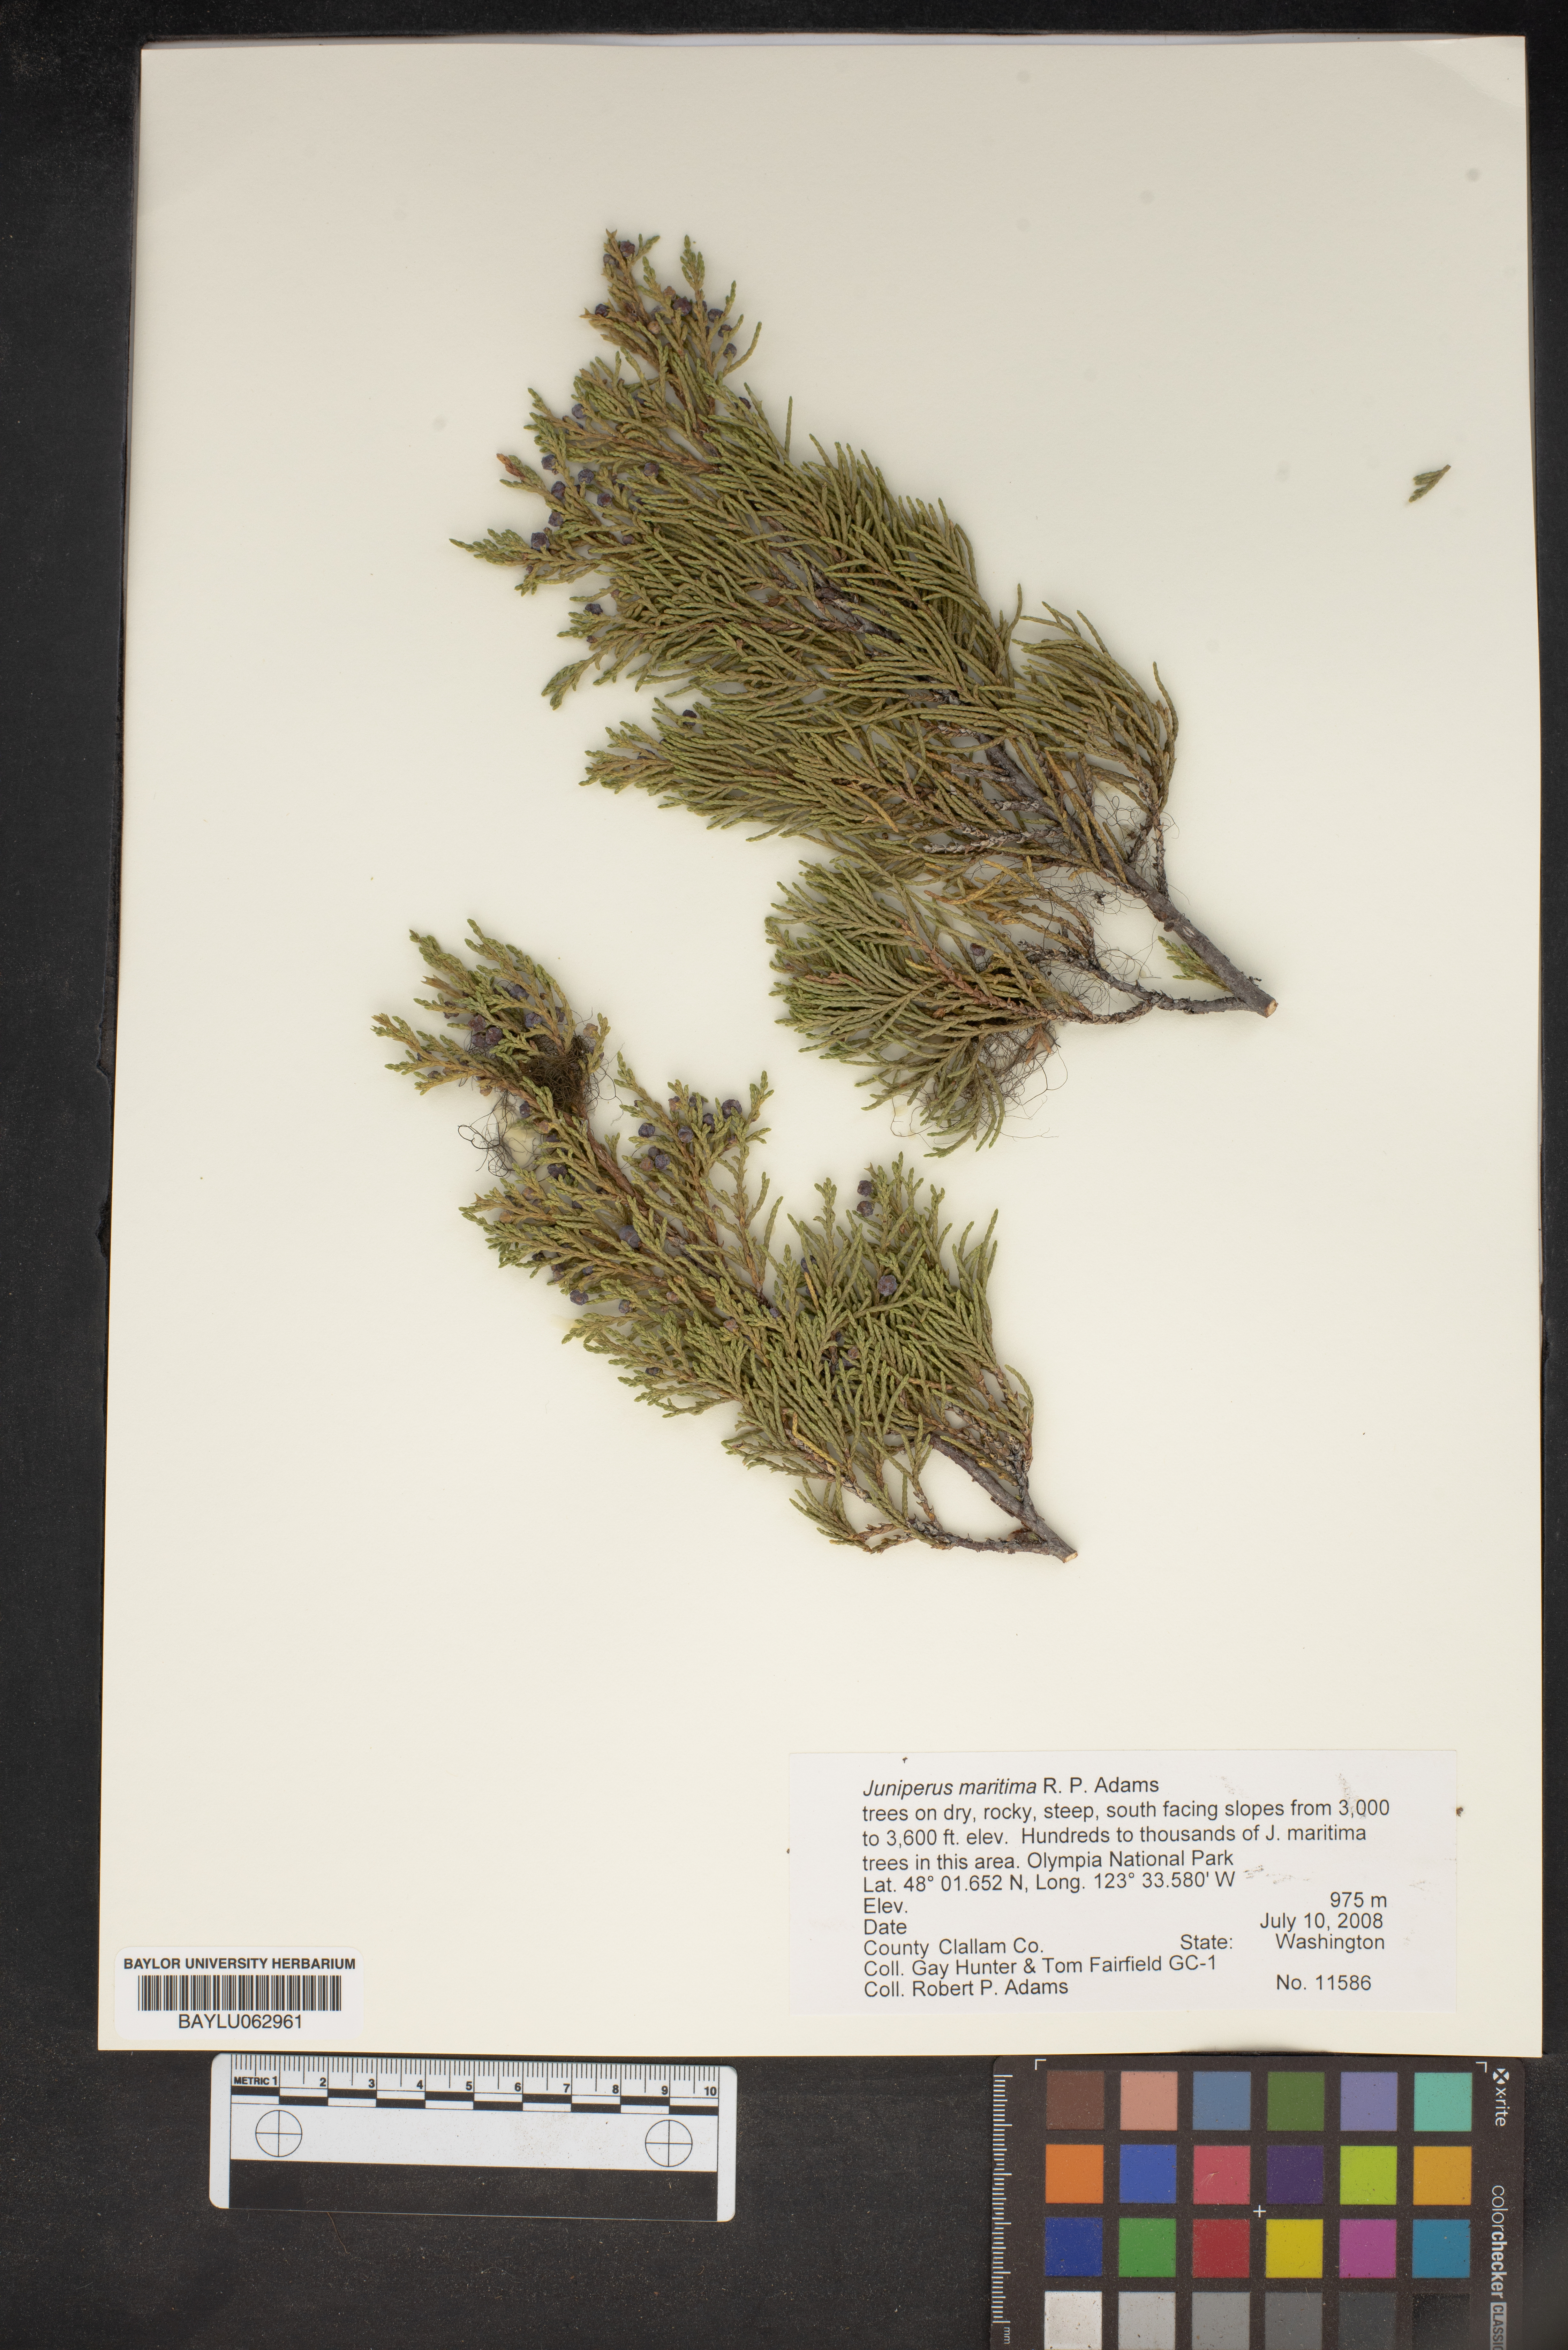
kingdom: Plantae
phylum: Tracheophyta
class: Pinopsida
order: Pinales
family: Cupressaceae
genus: Juniperus
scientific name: Juniperus scopulorum
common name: Rocky mountain juniper
